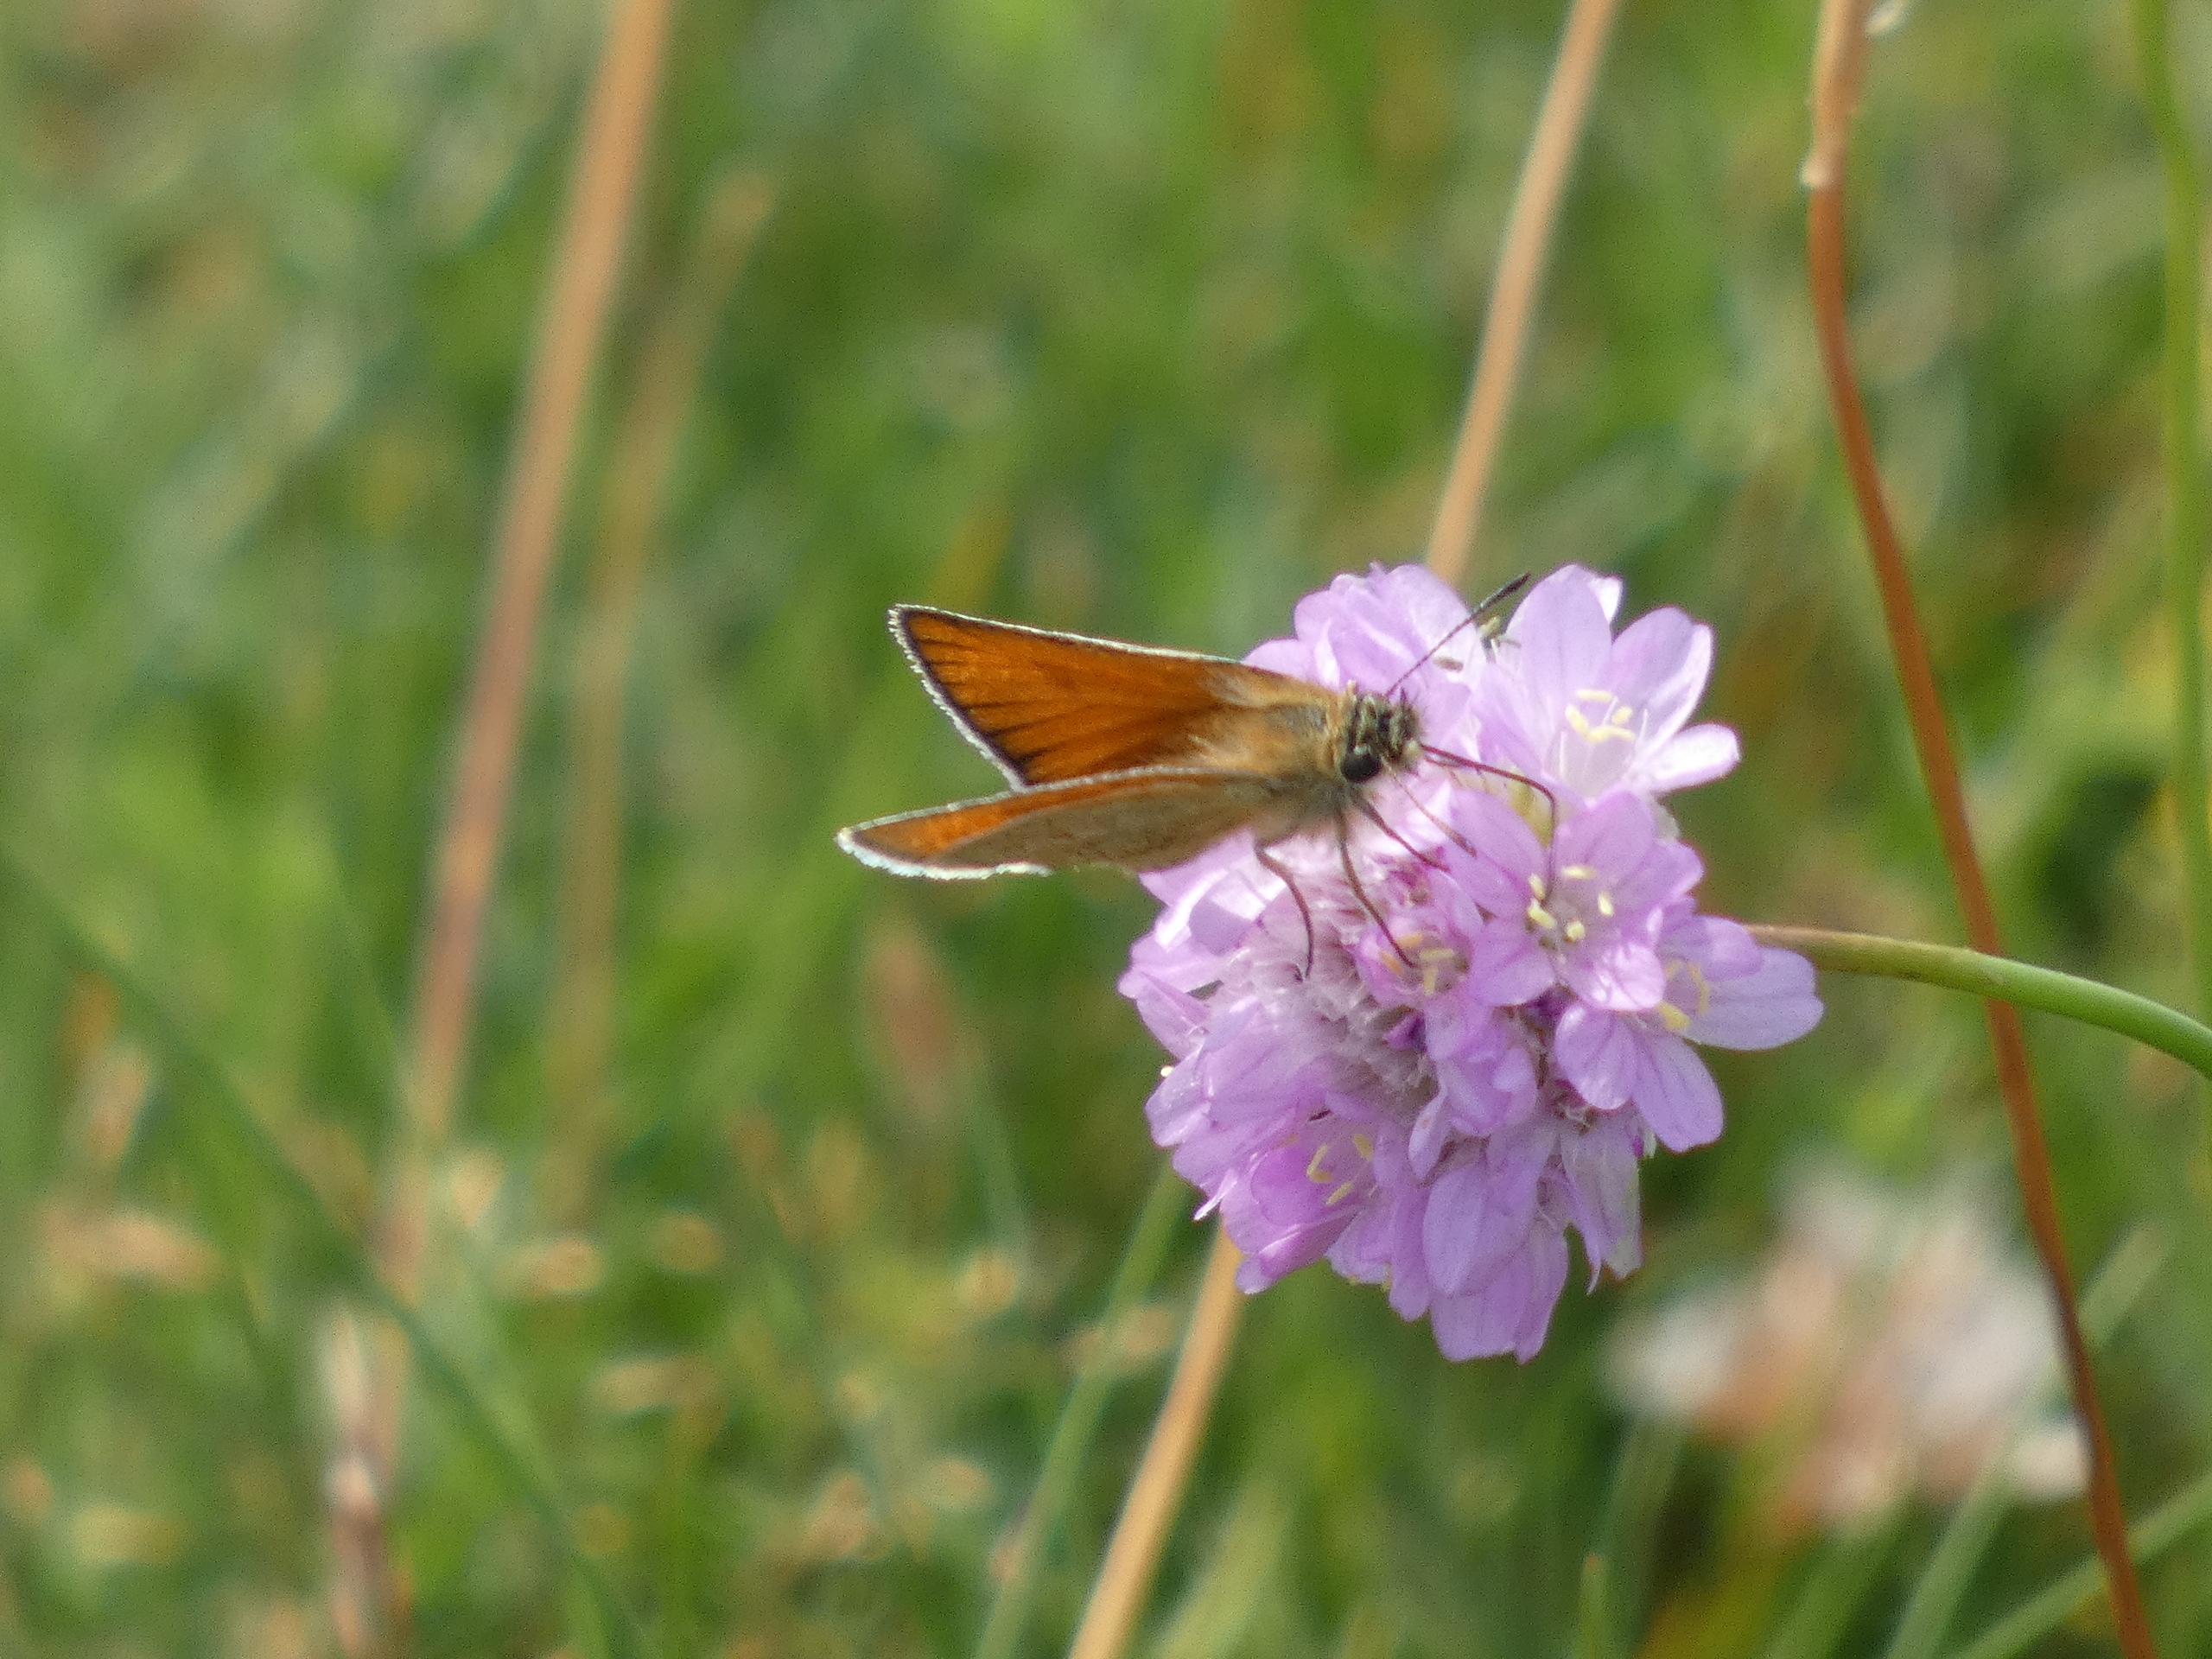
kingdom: Animalia
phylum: Arthropoda
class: Insecta
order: Lepidoptera
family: Hesperiidae
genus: Thymelicus
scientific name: Thymelicus lineola
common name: Stregbredpande
